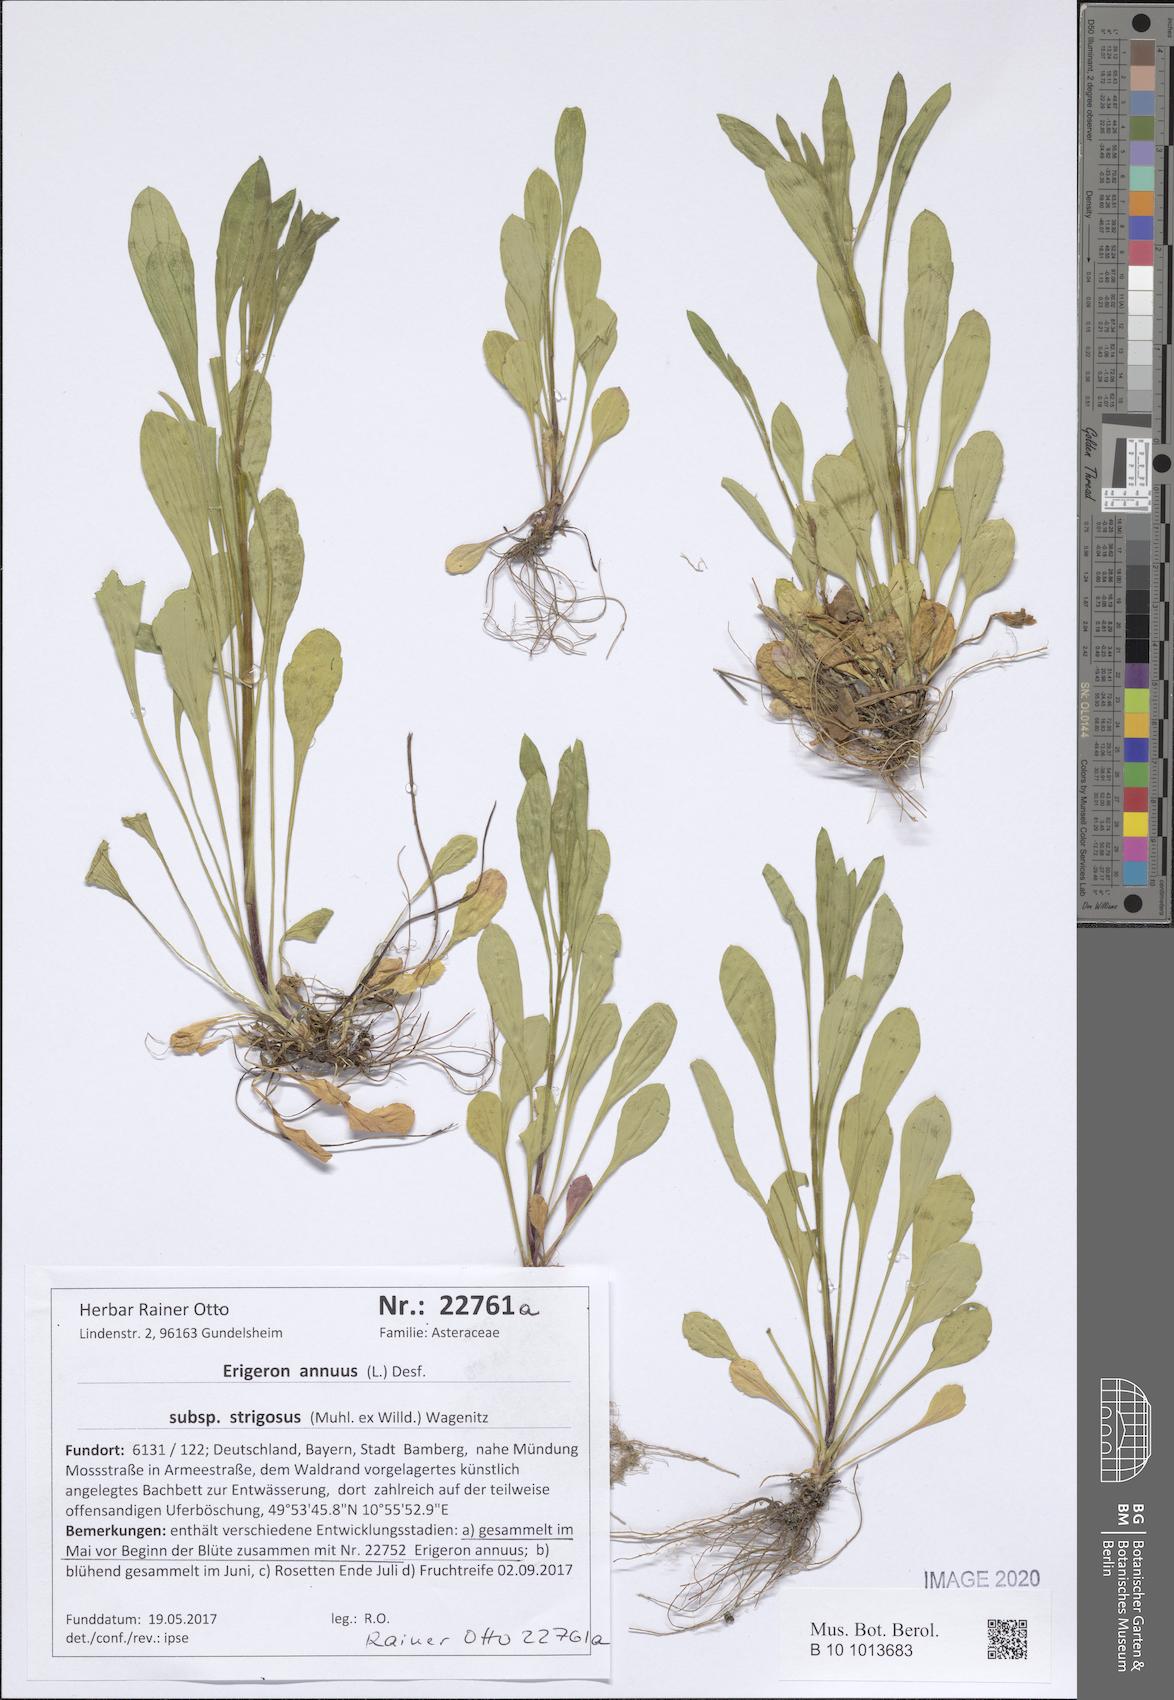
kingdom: Plantae
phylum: Tracheophyta
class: Magnoliopsida
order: Asterales
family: Asteraceae
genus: Erigeron
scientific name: Erigeron strigosus
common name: Common eastern fleabane
